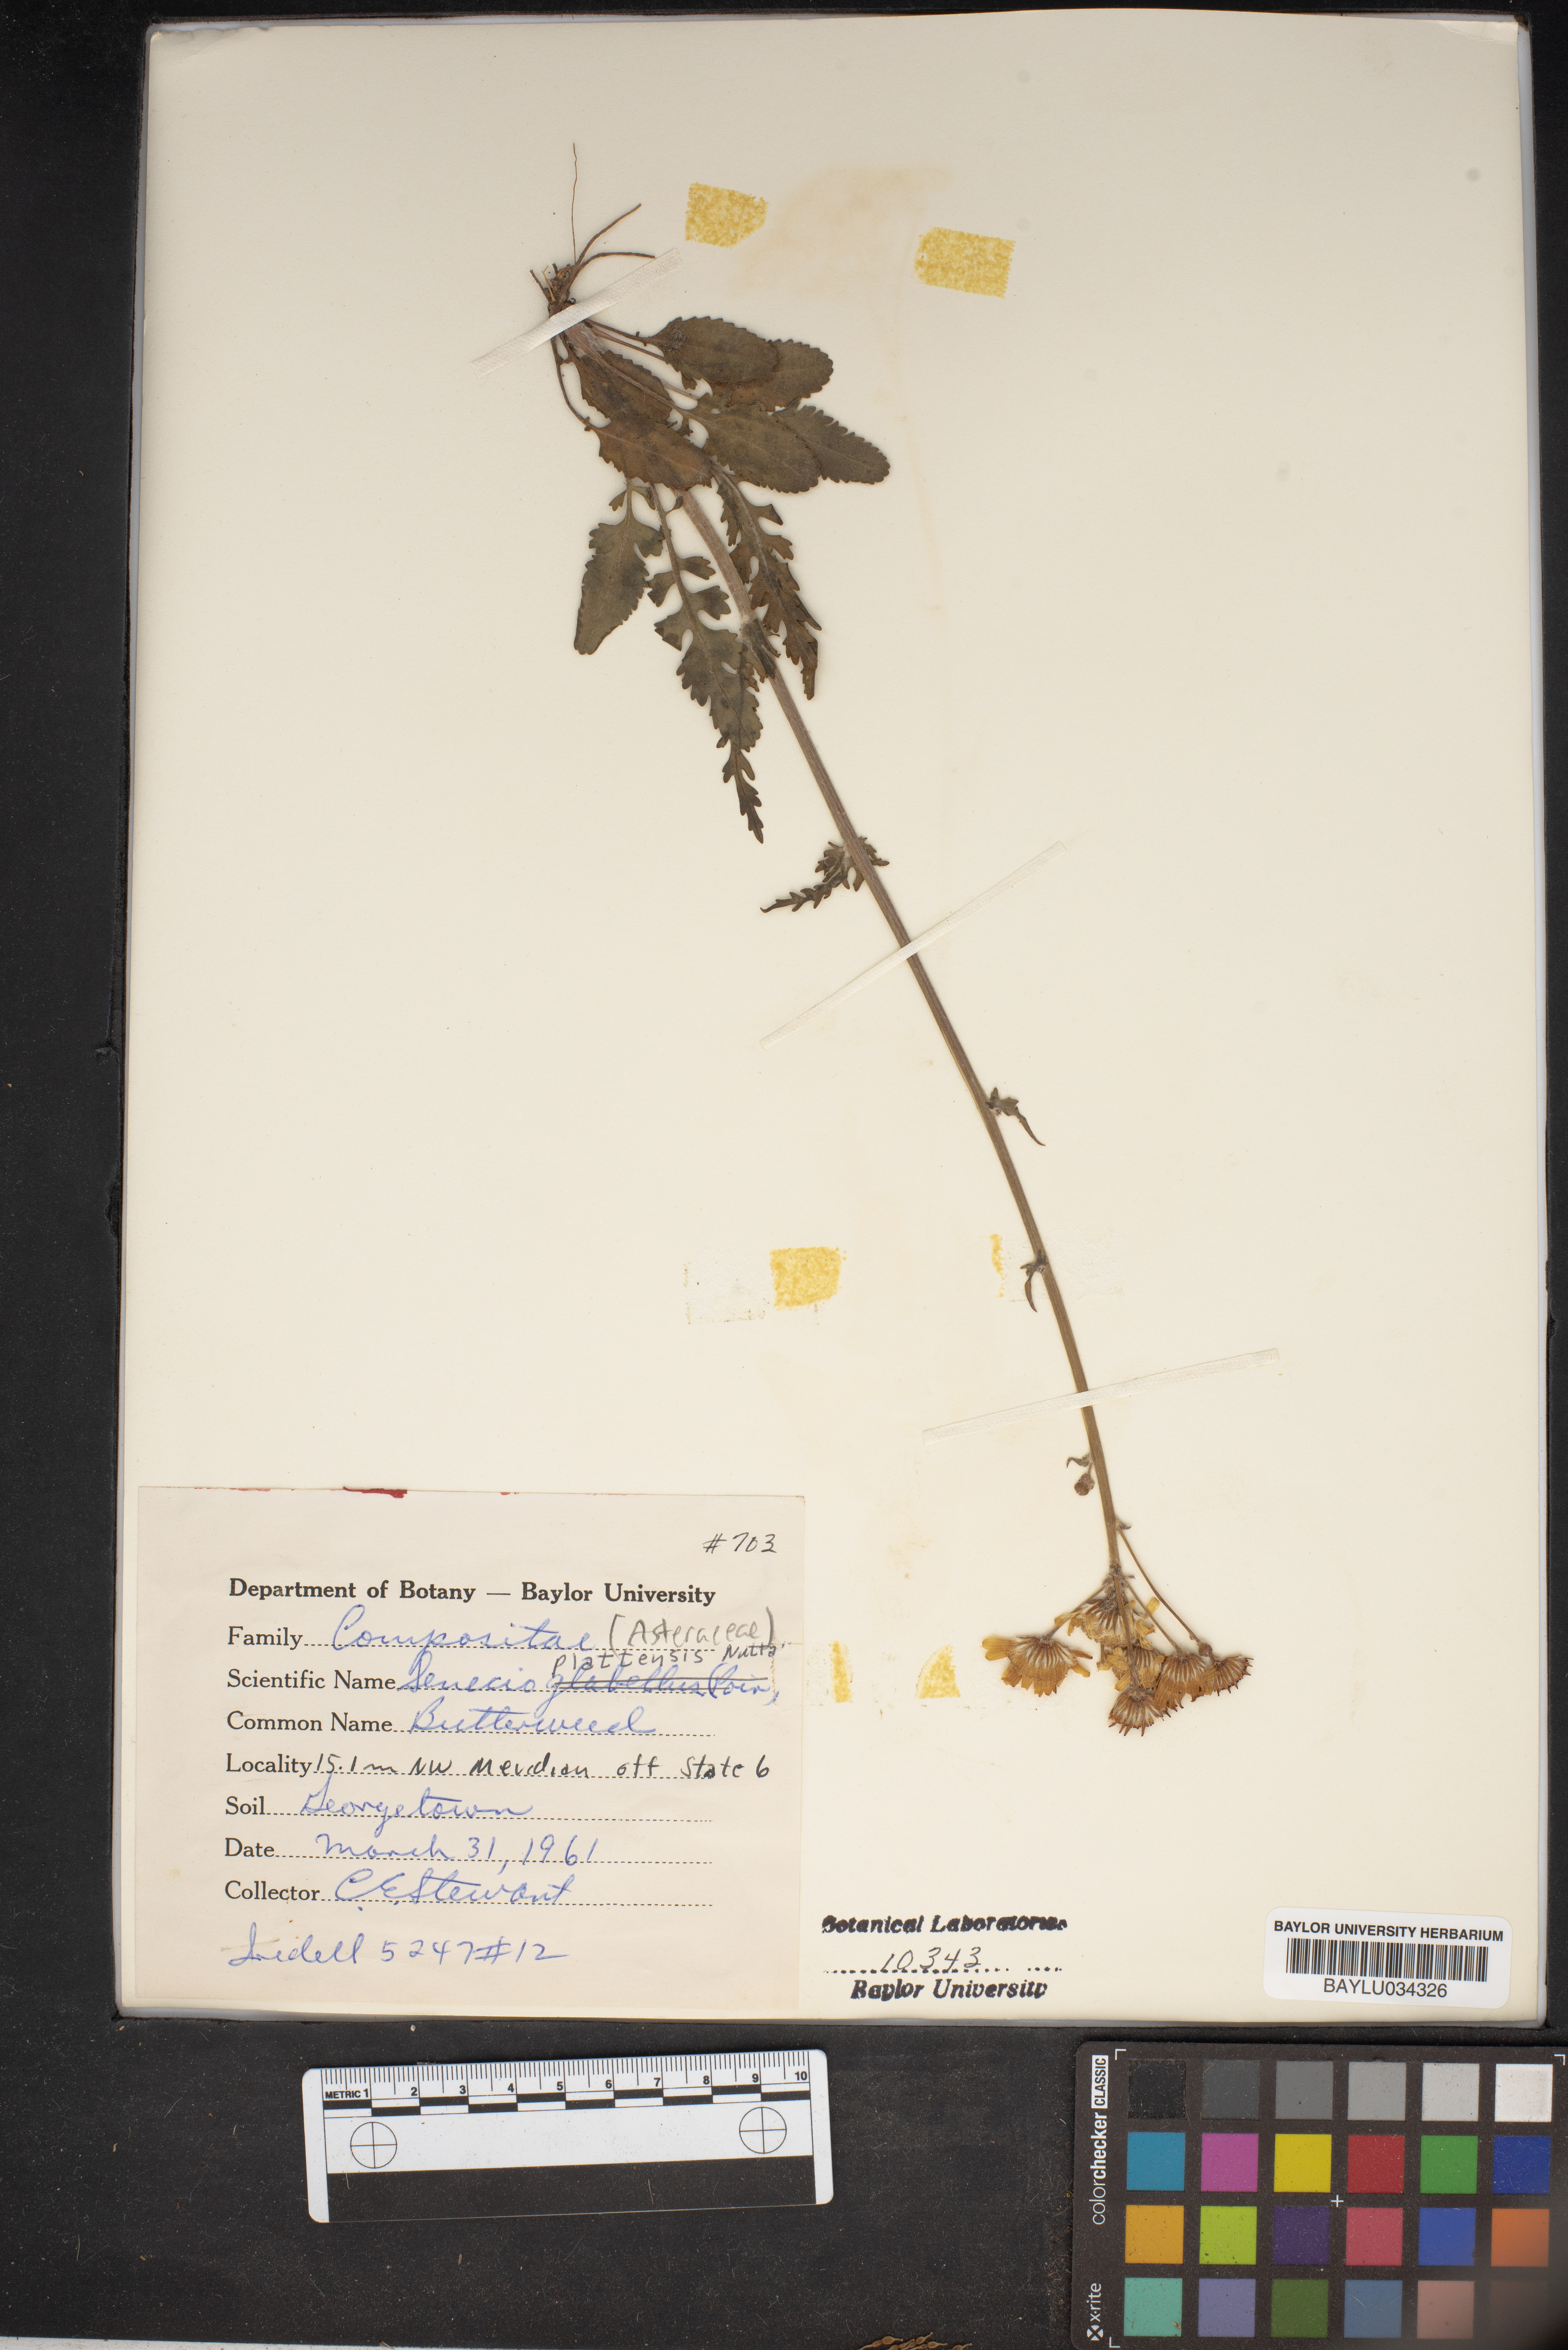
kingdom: Plantae
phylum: Tracheophyta
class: Magnoliopsida
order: Asterales
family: Asteraceae
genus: Packera
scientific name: Packera plattensis
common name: Prairie groundsel
